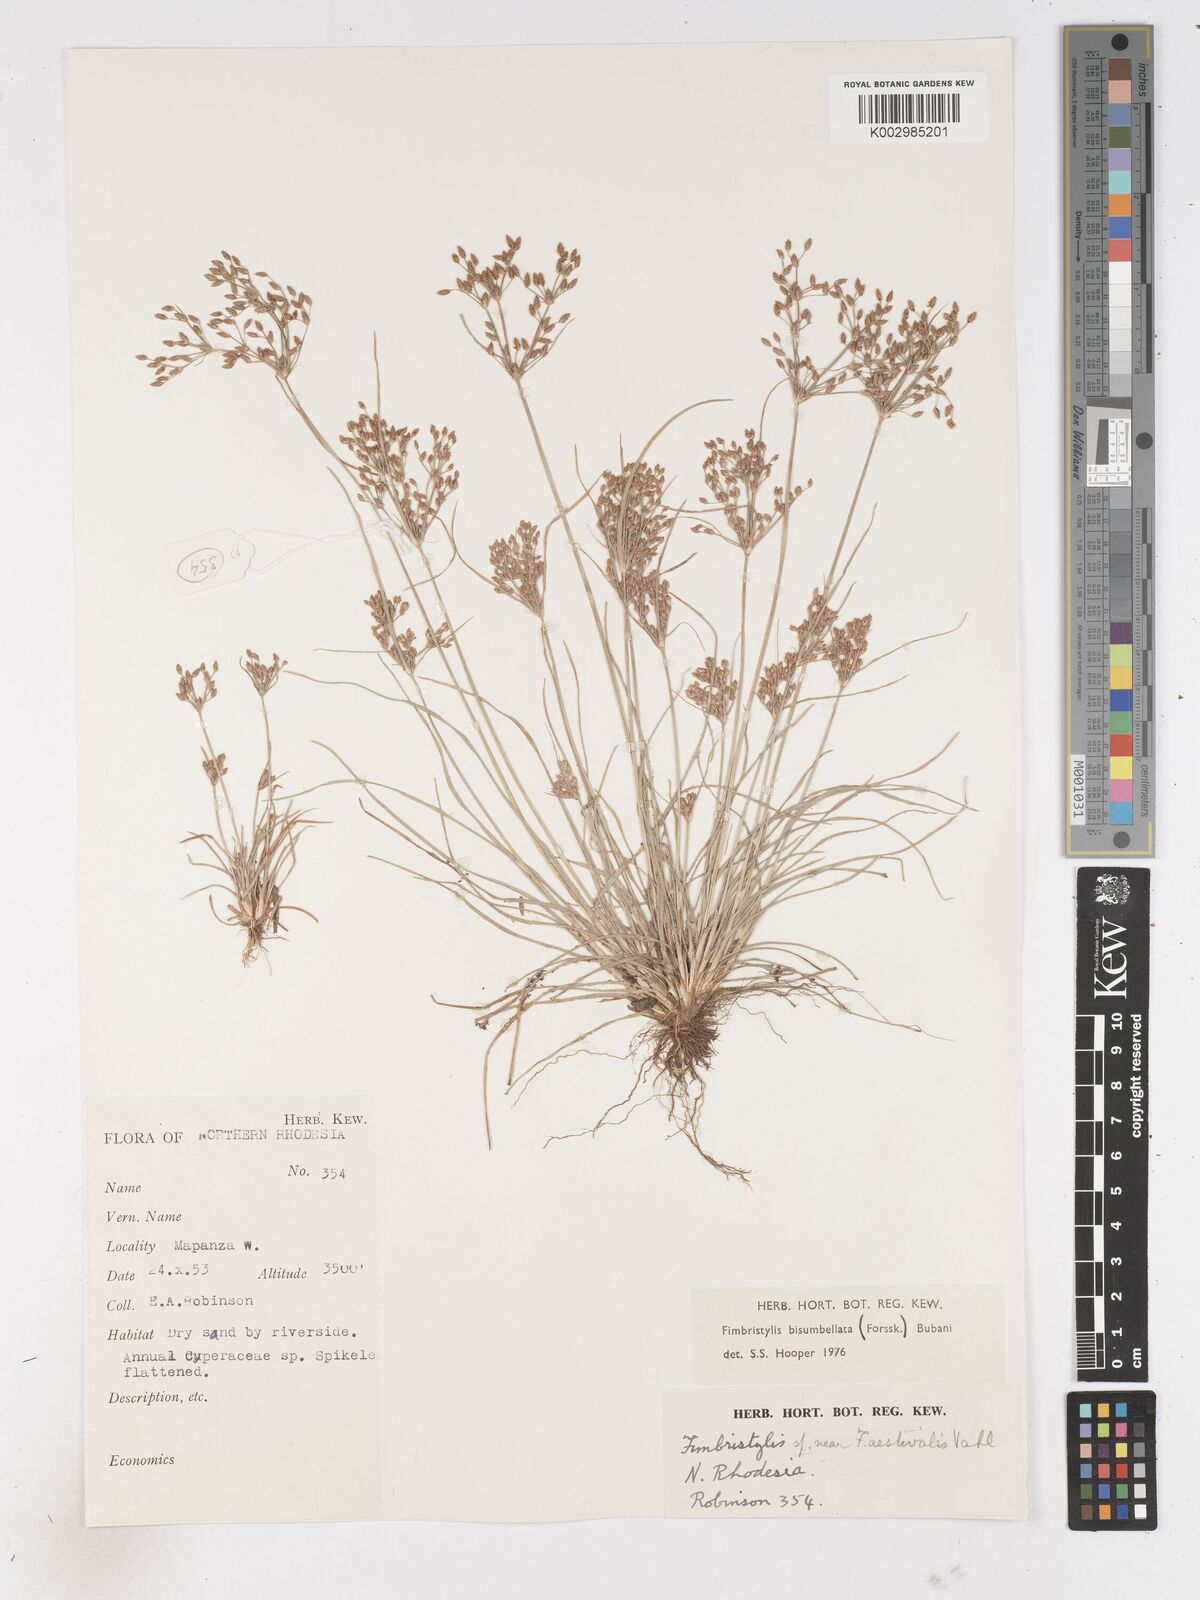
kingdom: Plantae
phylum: Tracheophyta
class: Liliopsida
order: Poales
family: Cyperaceae
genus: Fimbristylis
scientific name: Fimbristylis bisumbellata
